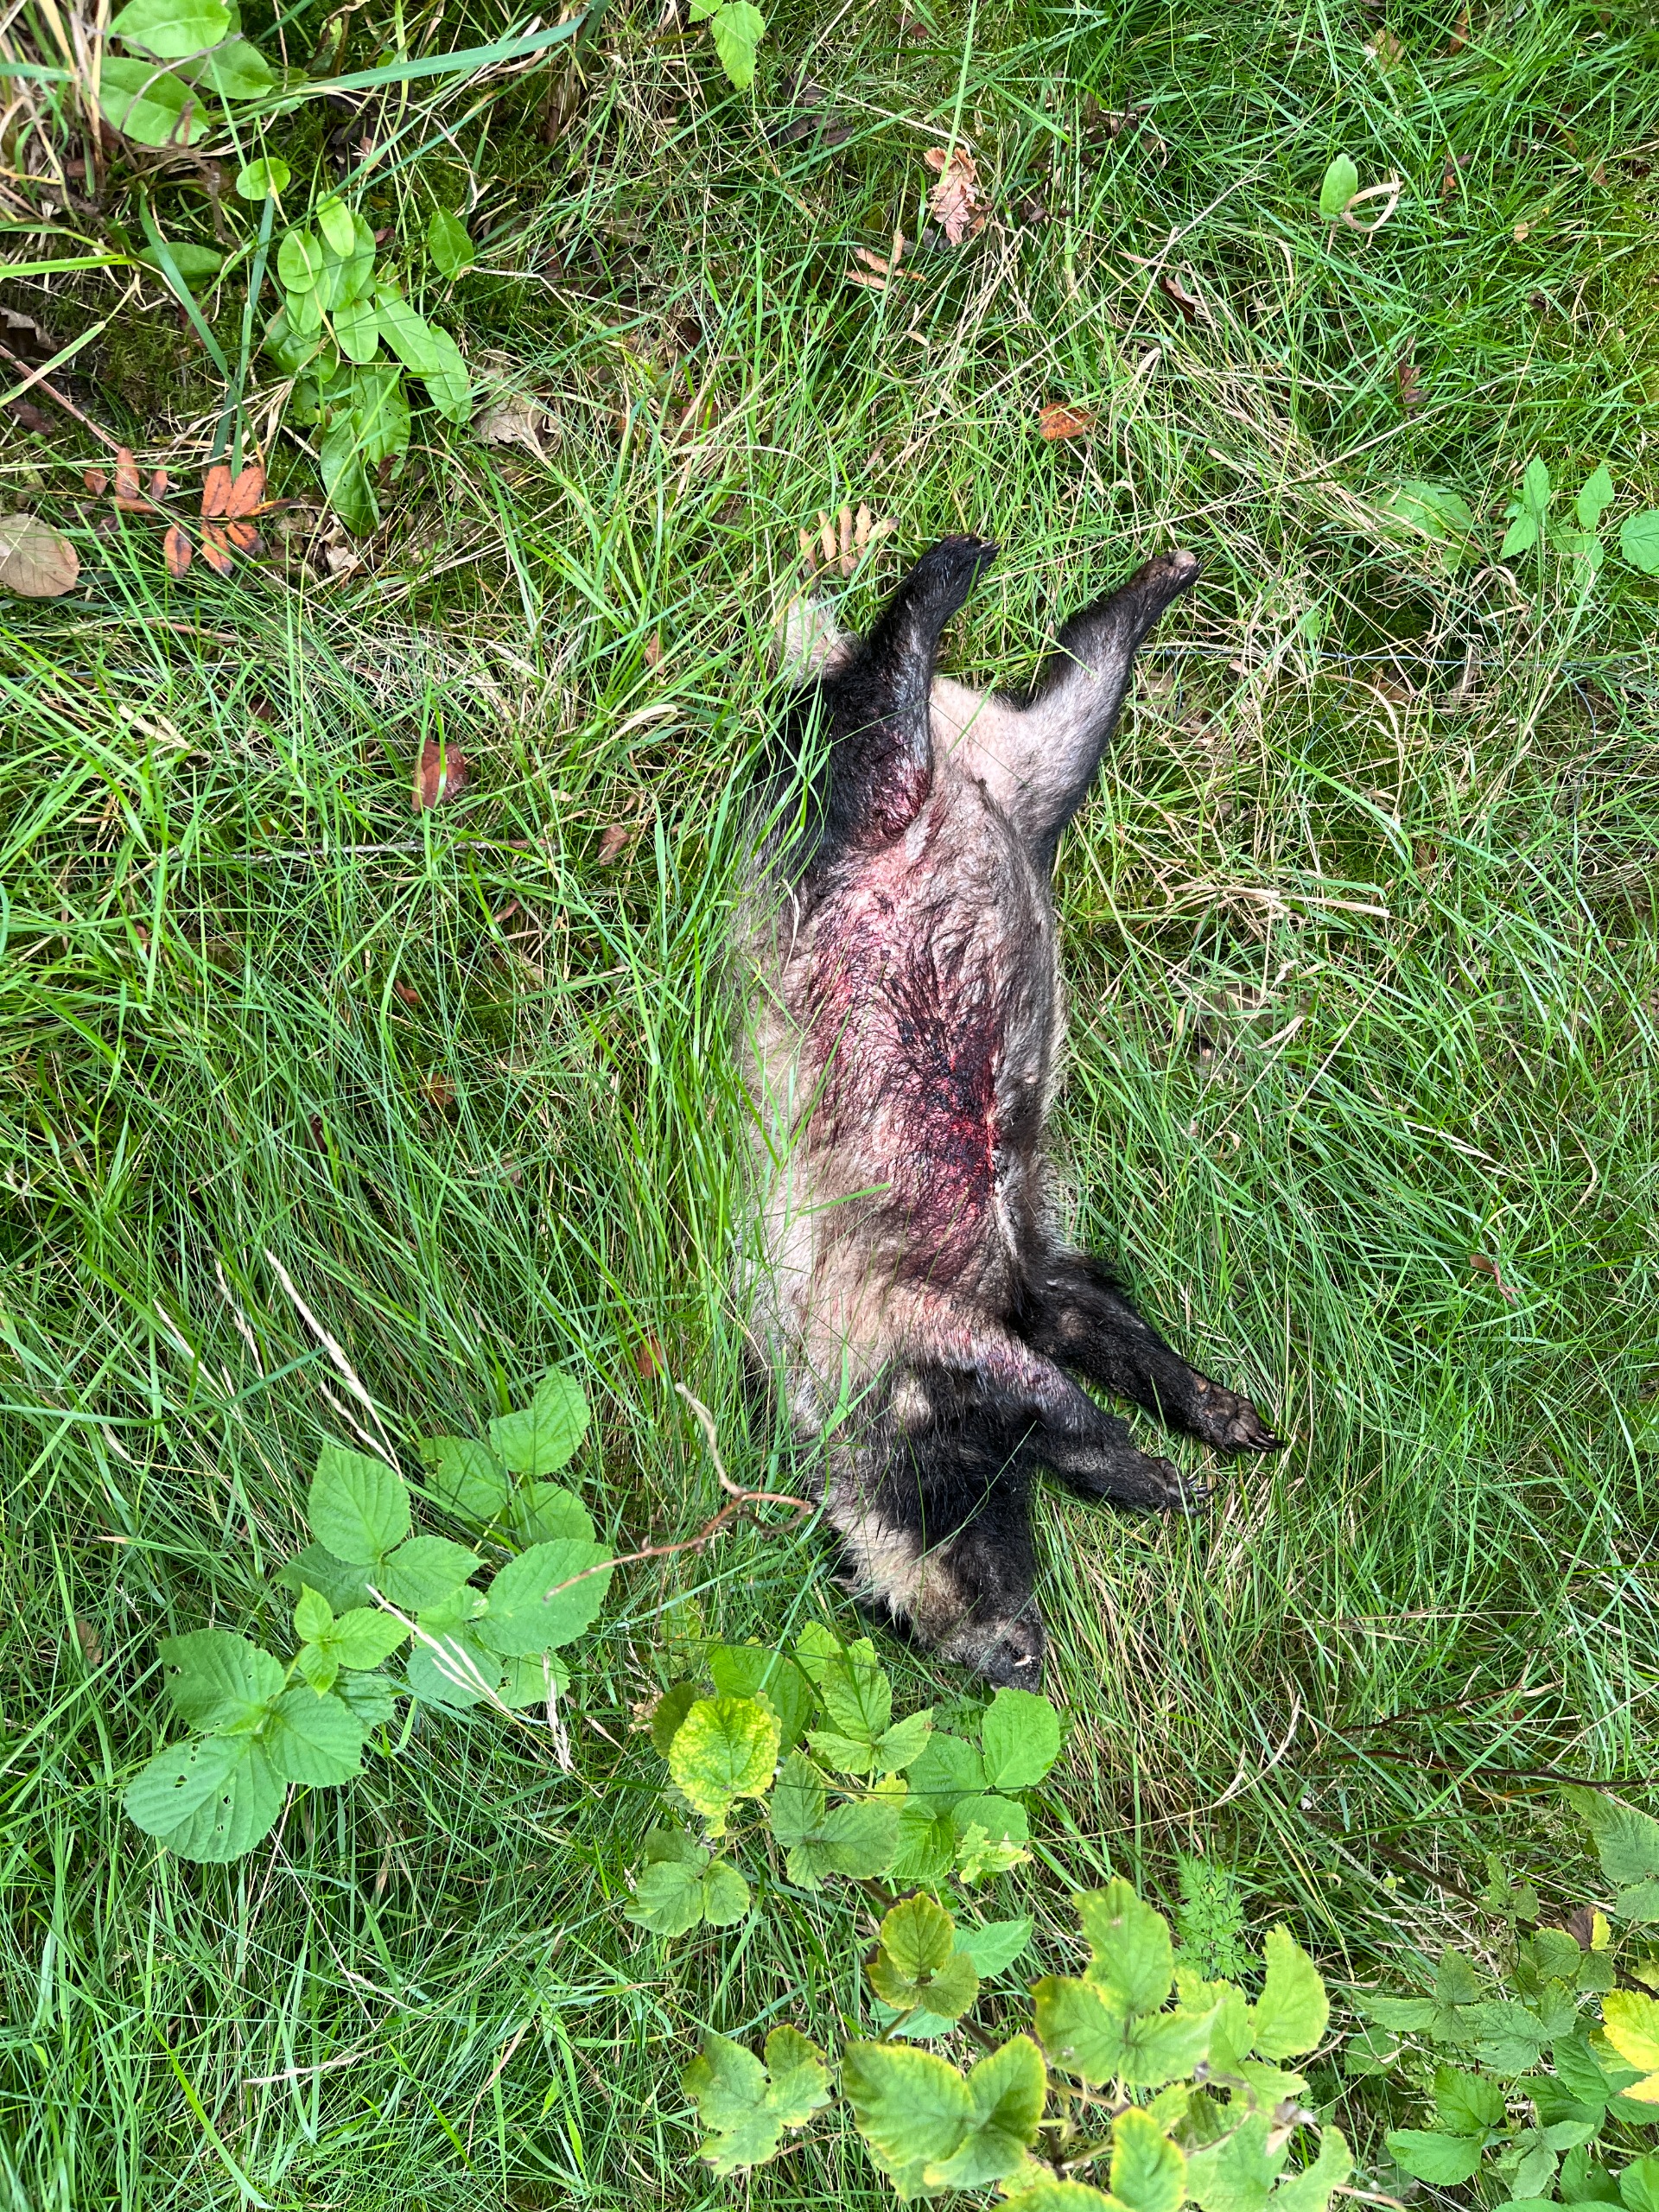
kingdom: Animalia
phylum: Chordata
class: Mammalia
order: Carnivora
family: Mustelidae
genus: Meles
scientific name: Meles meles
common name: Grævling
